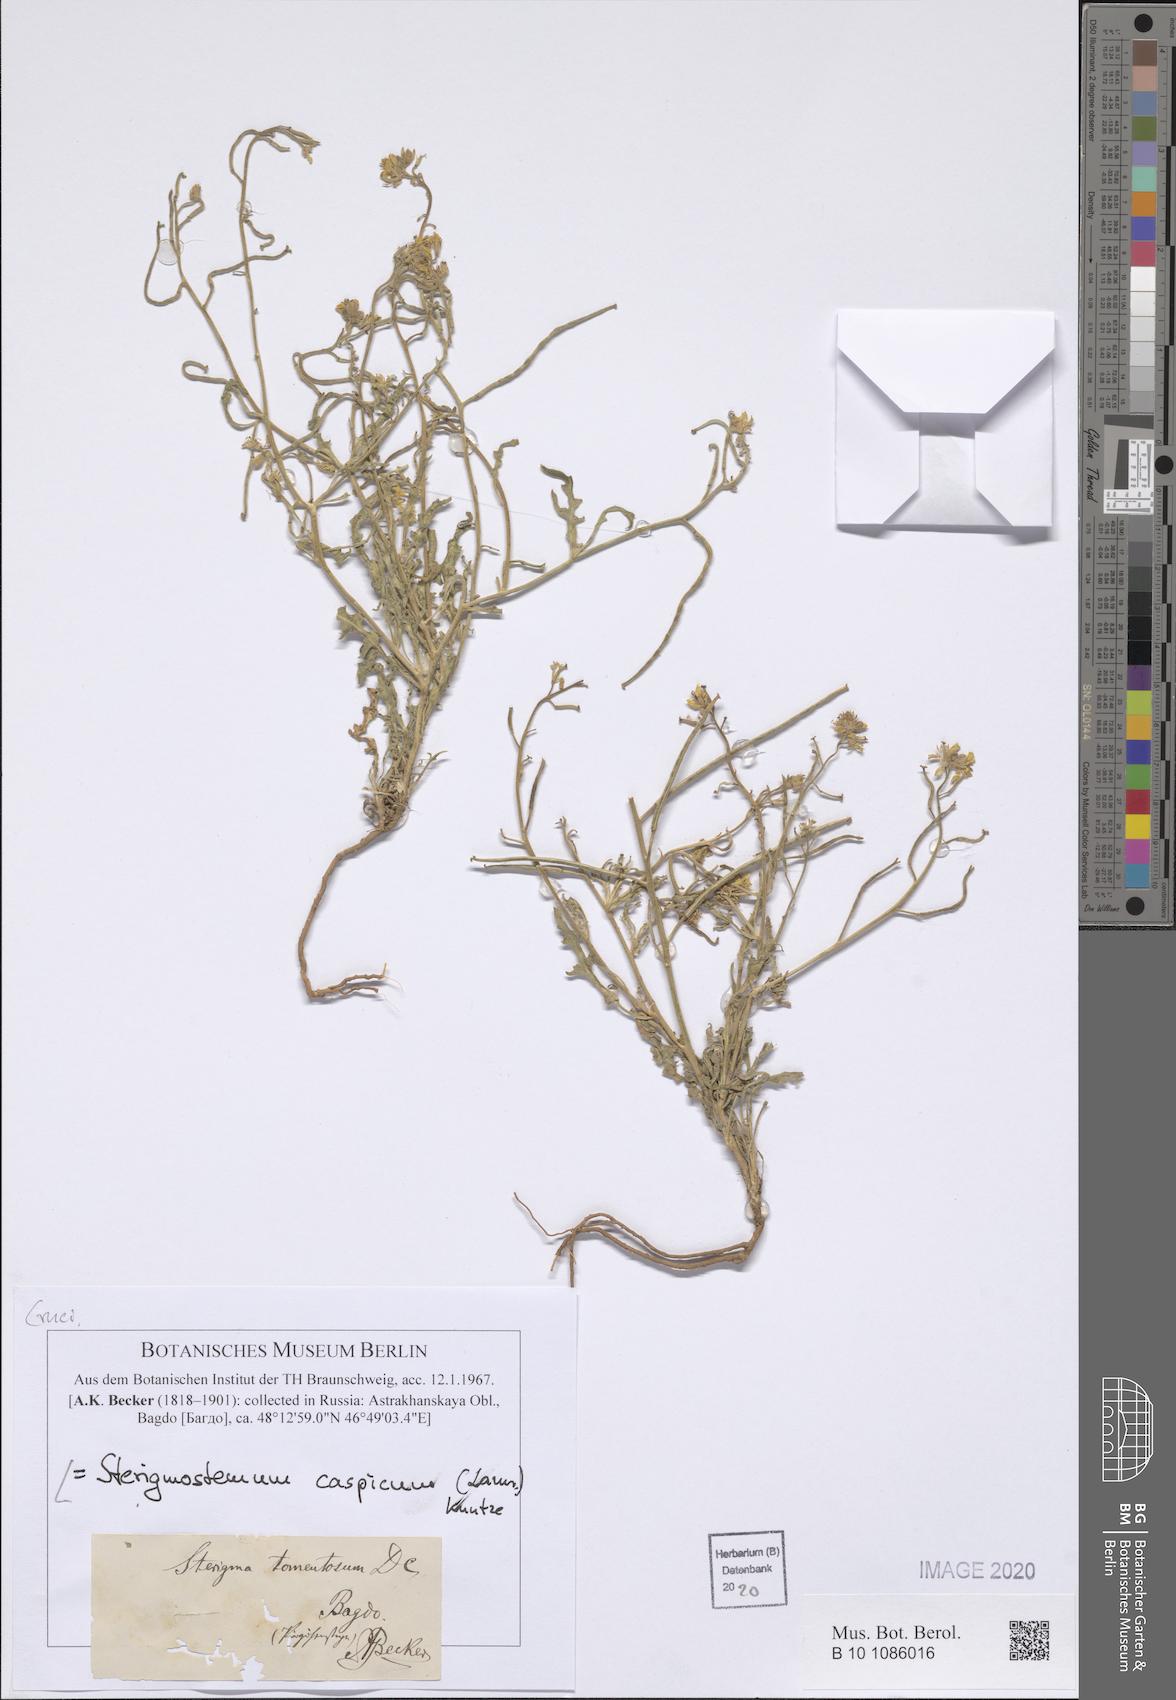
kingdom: Plantae
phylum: Tracheophyta
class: Magnoliopsida
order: Brassicales
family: Brassicaceae
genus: Sterigmostemum
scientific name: Sterigmostemum caspicum
